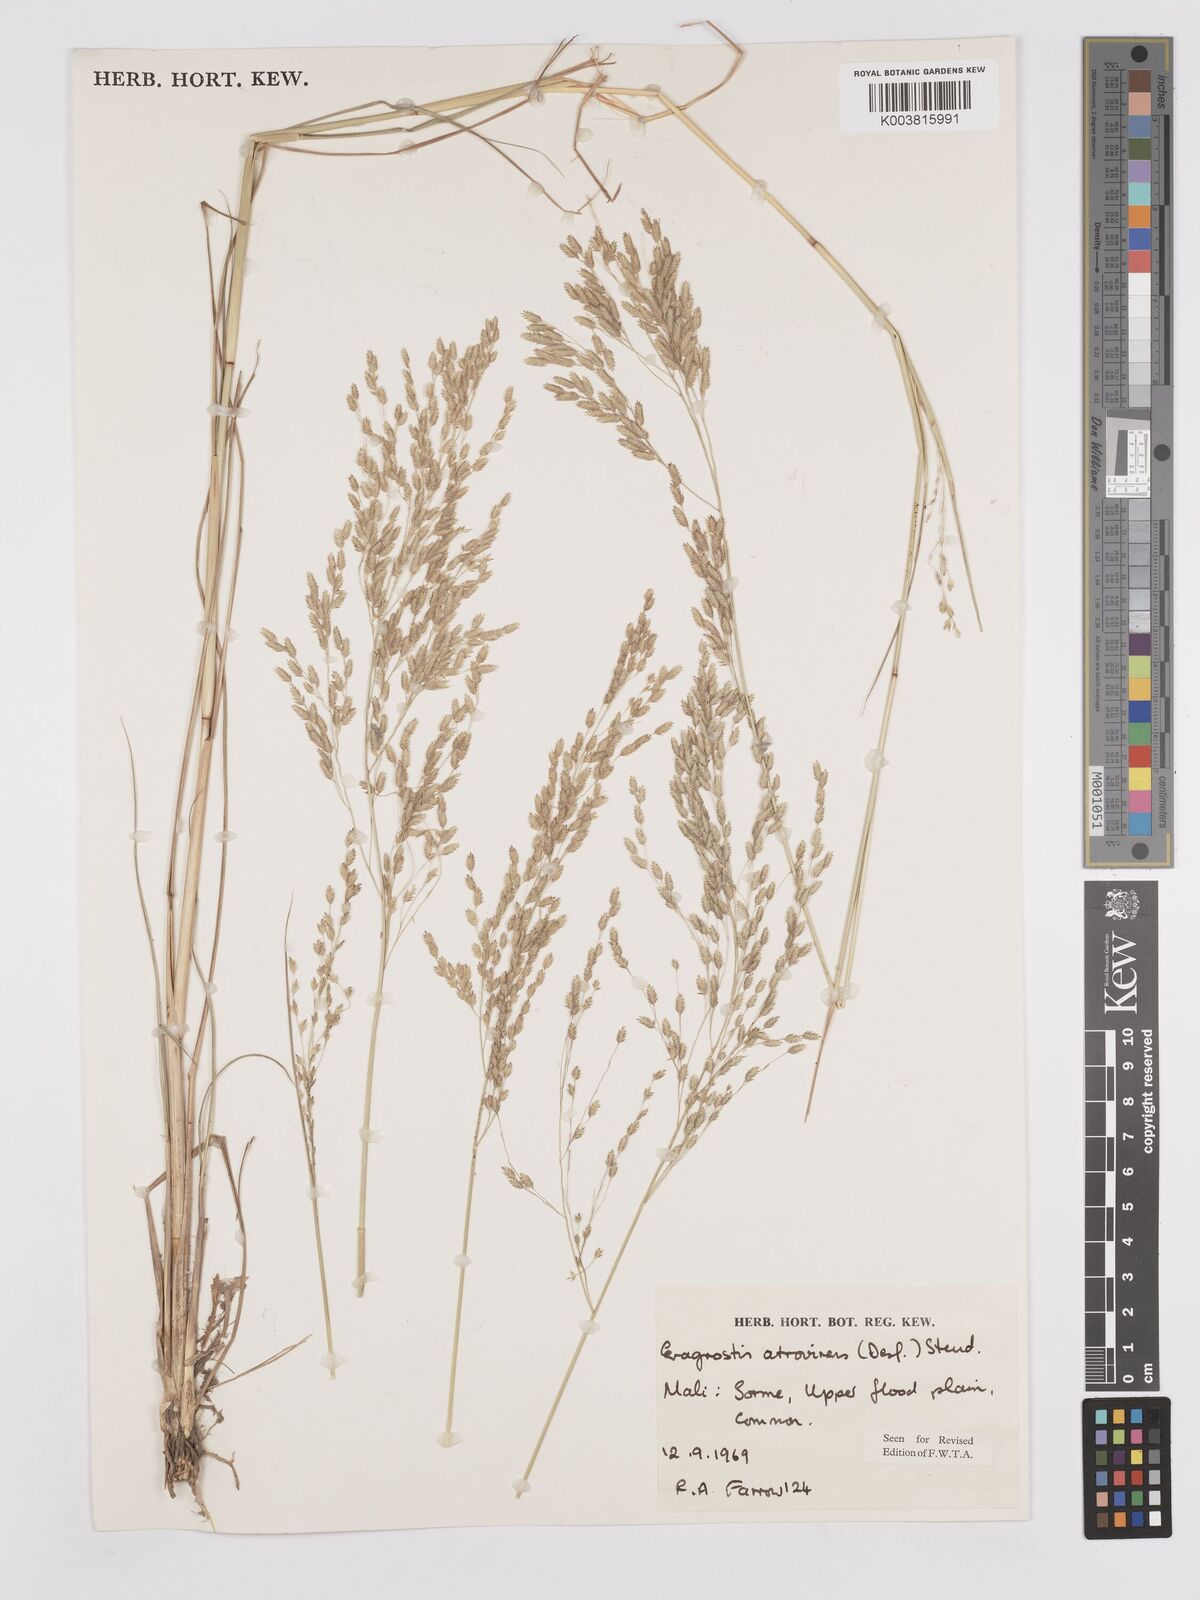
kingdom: Plantae
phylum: Tracheophyta
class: Liliopsida
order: Poales
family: Poaceae
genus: Eragrostis
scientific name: Eragrostis atrovirens
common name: Thalia lovegrass
